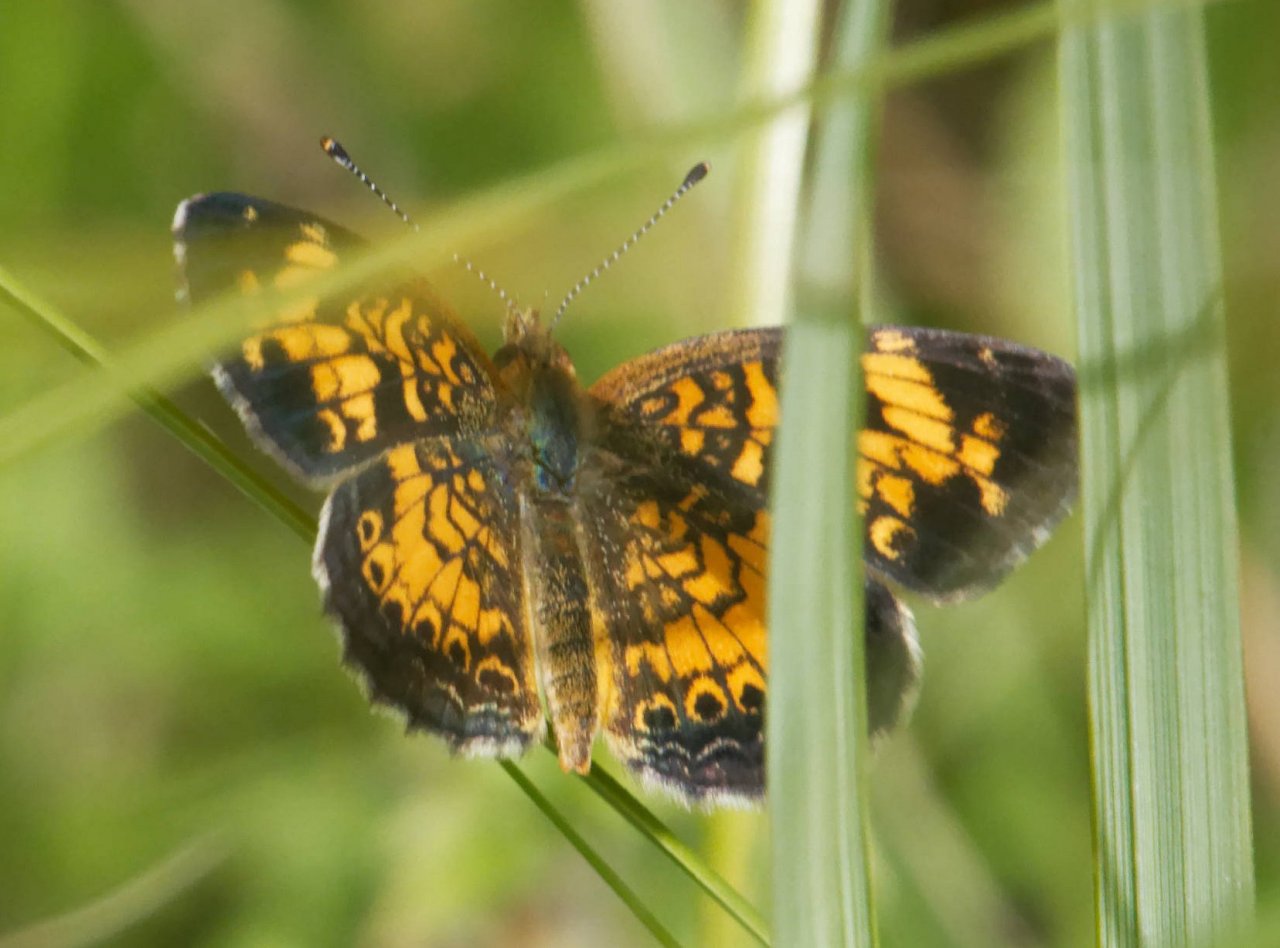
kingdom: Animalia
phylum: Arthropoda
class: Insecta
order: Lepidoptera
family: Nymphalidae
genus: Phyciodes
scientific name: Phyciodes
